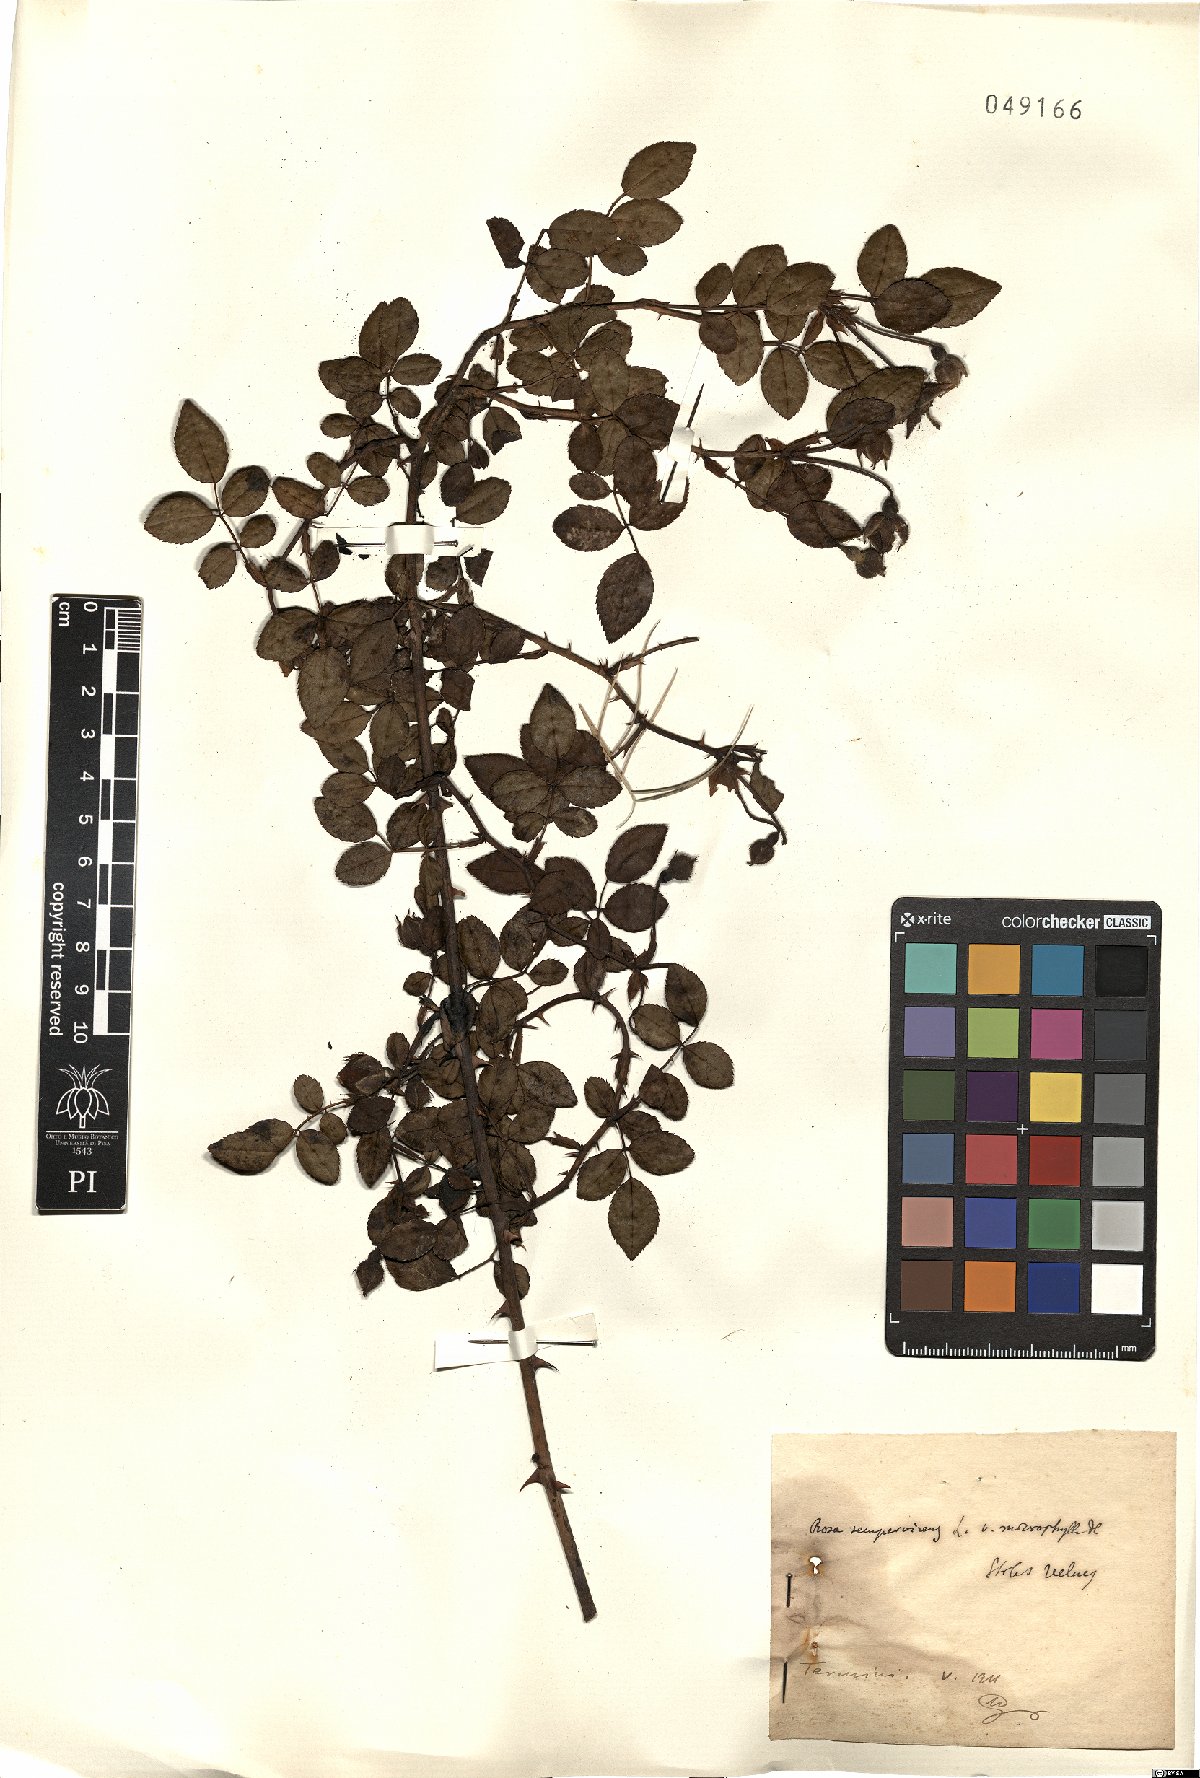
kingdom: Plantae
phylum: Tracheophyta
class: Magnoliopsida
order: Rosales
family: Rosaceae
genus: Rosa
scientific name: Rosa sempervirens
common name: Evergreen rose
